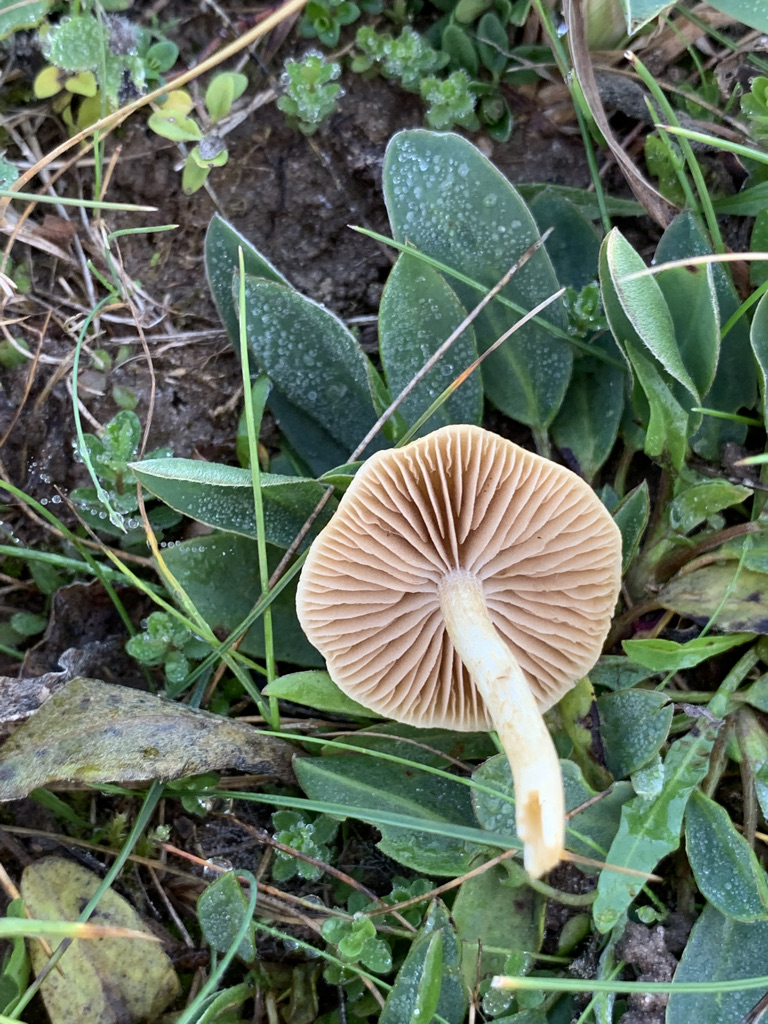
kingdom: Fungi
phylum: Basidiomycota
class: Agaricomycetes
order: Agaricales
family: Strophariaceae
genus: Agrocybe
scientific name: Agrocybe
